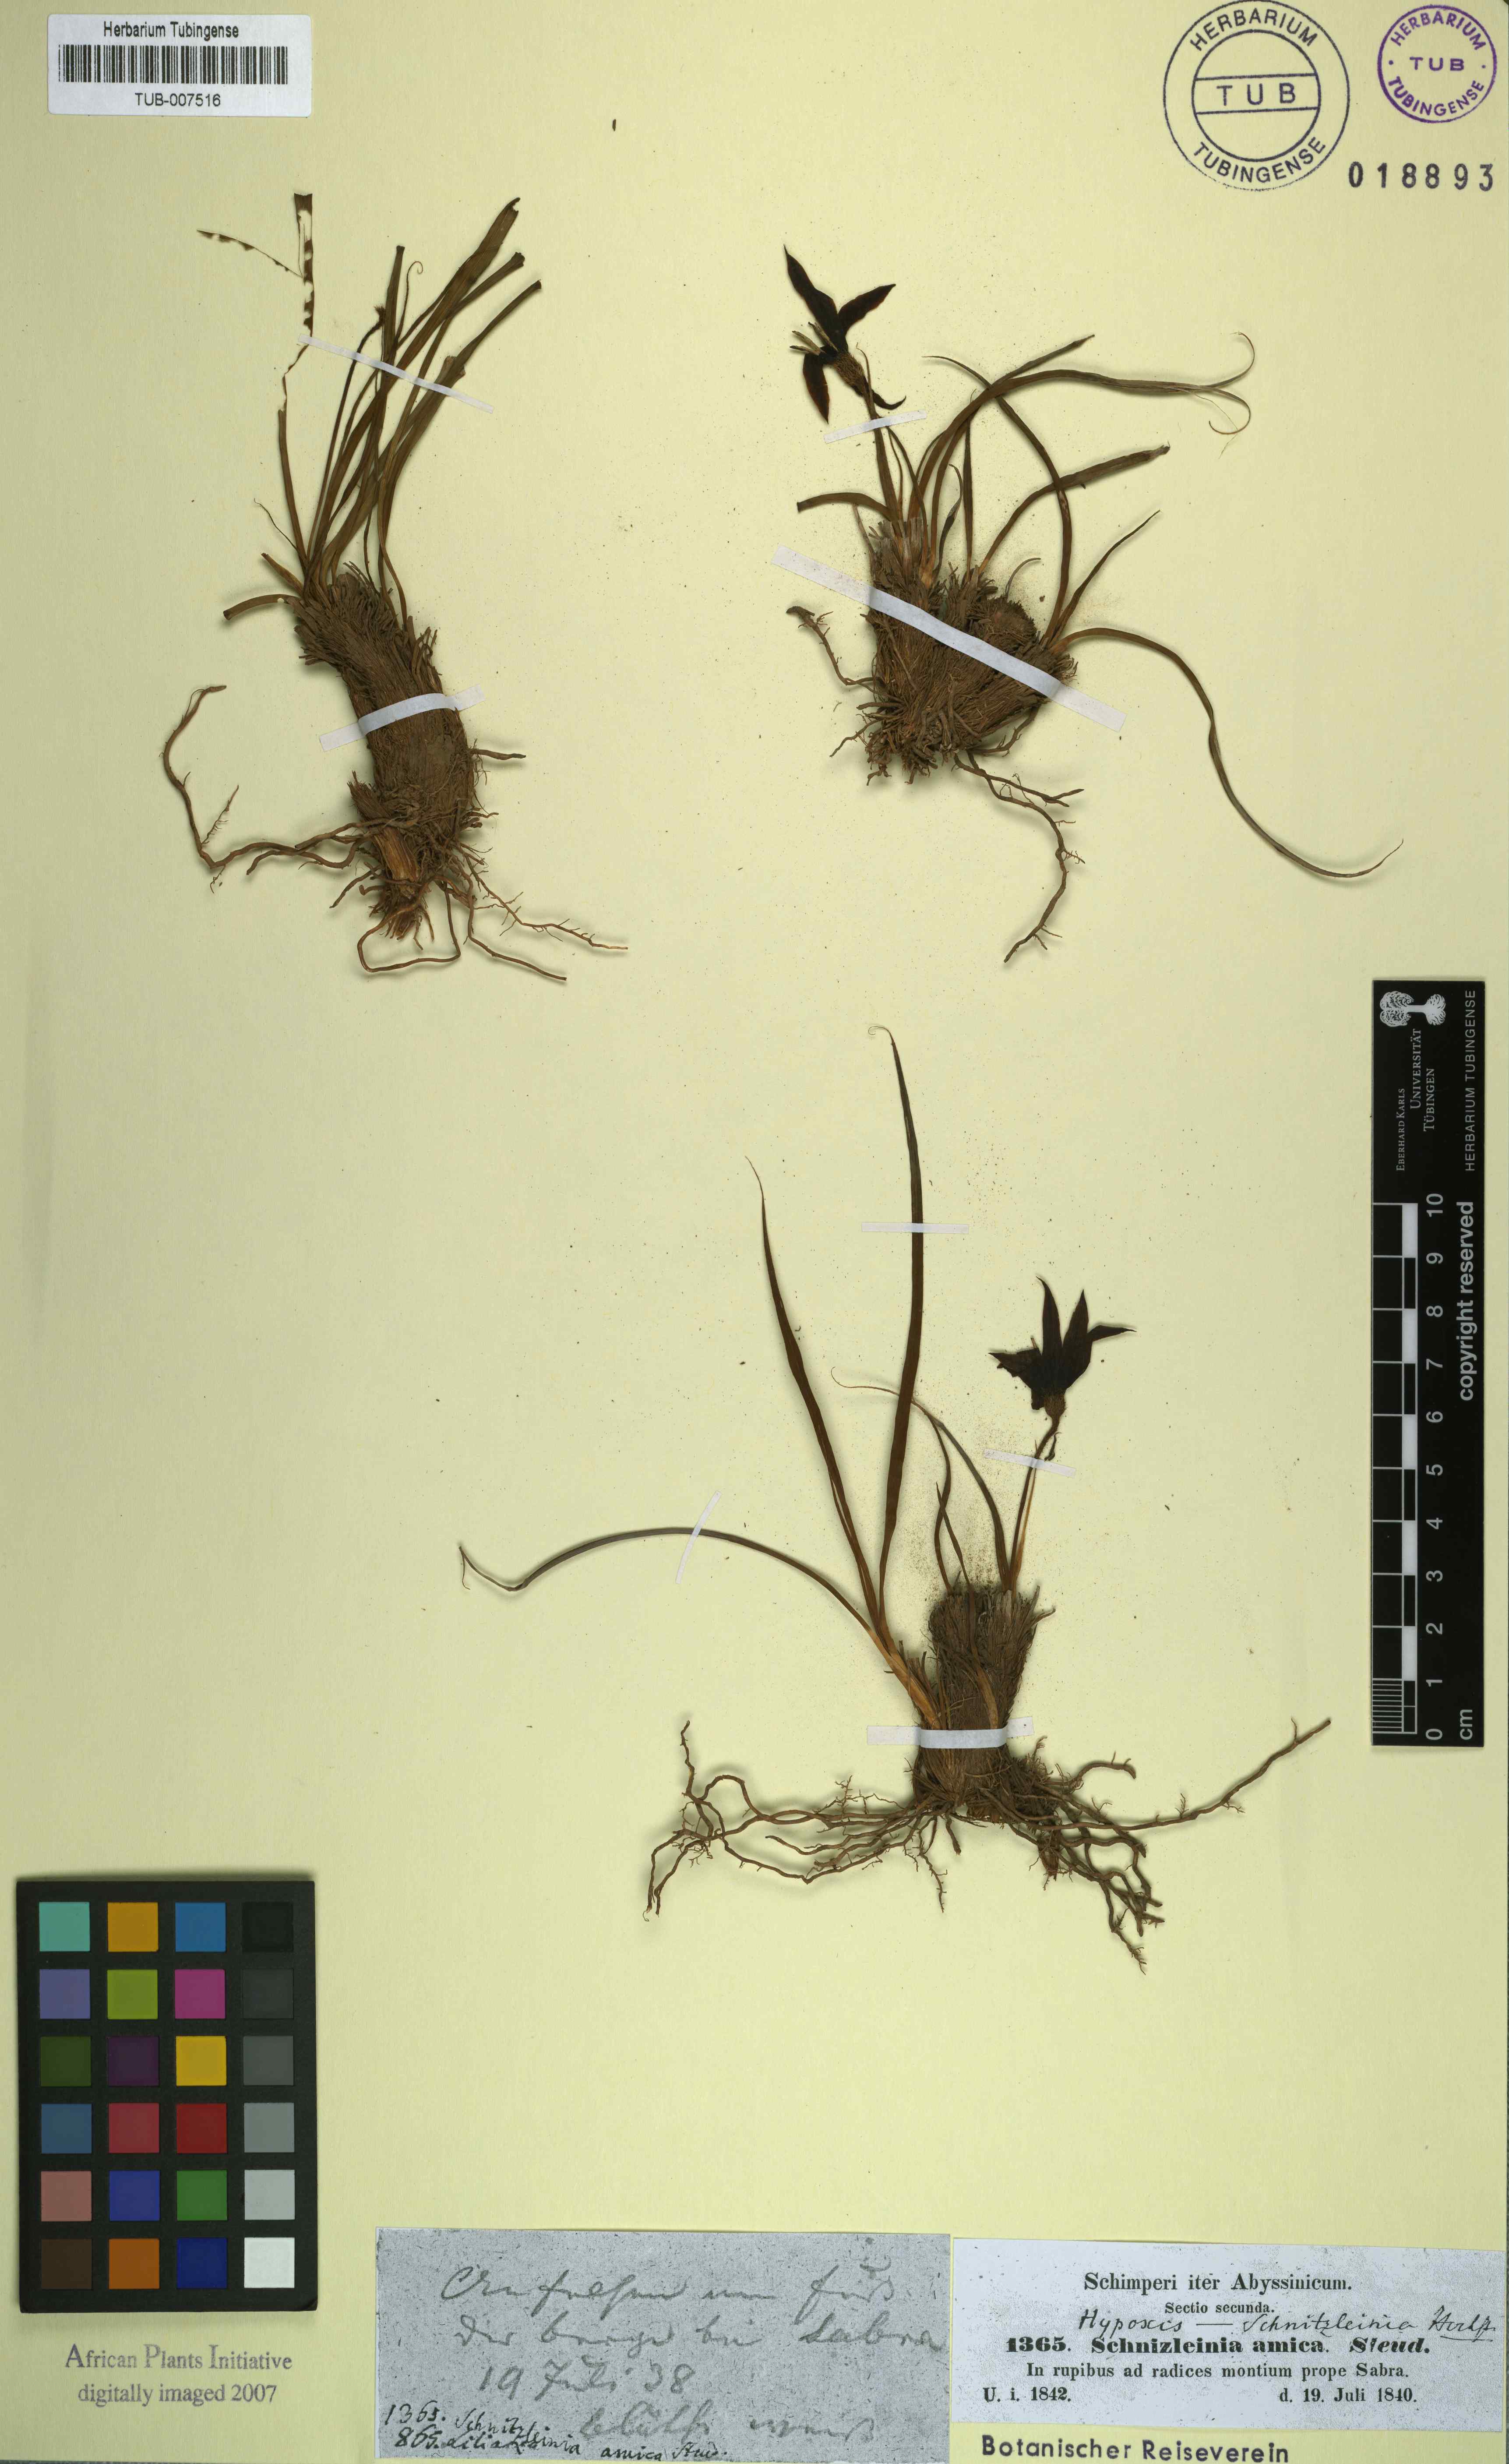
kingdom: Plantae
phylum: Tracheophyta
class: Liliopsida
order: Pandanales
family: Velloziaceae
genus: Xerophyta
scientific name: Xerophyta schnizleinia
